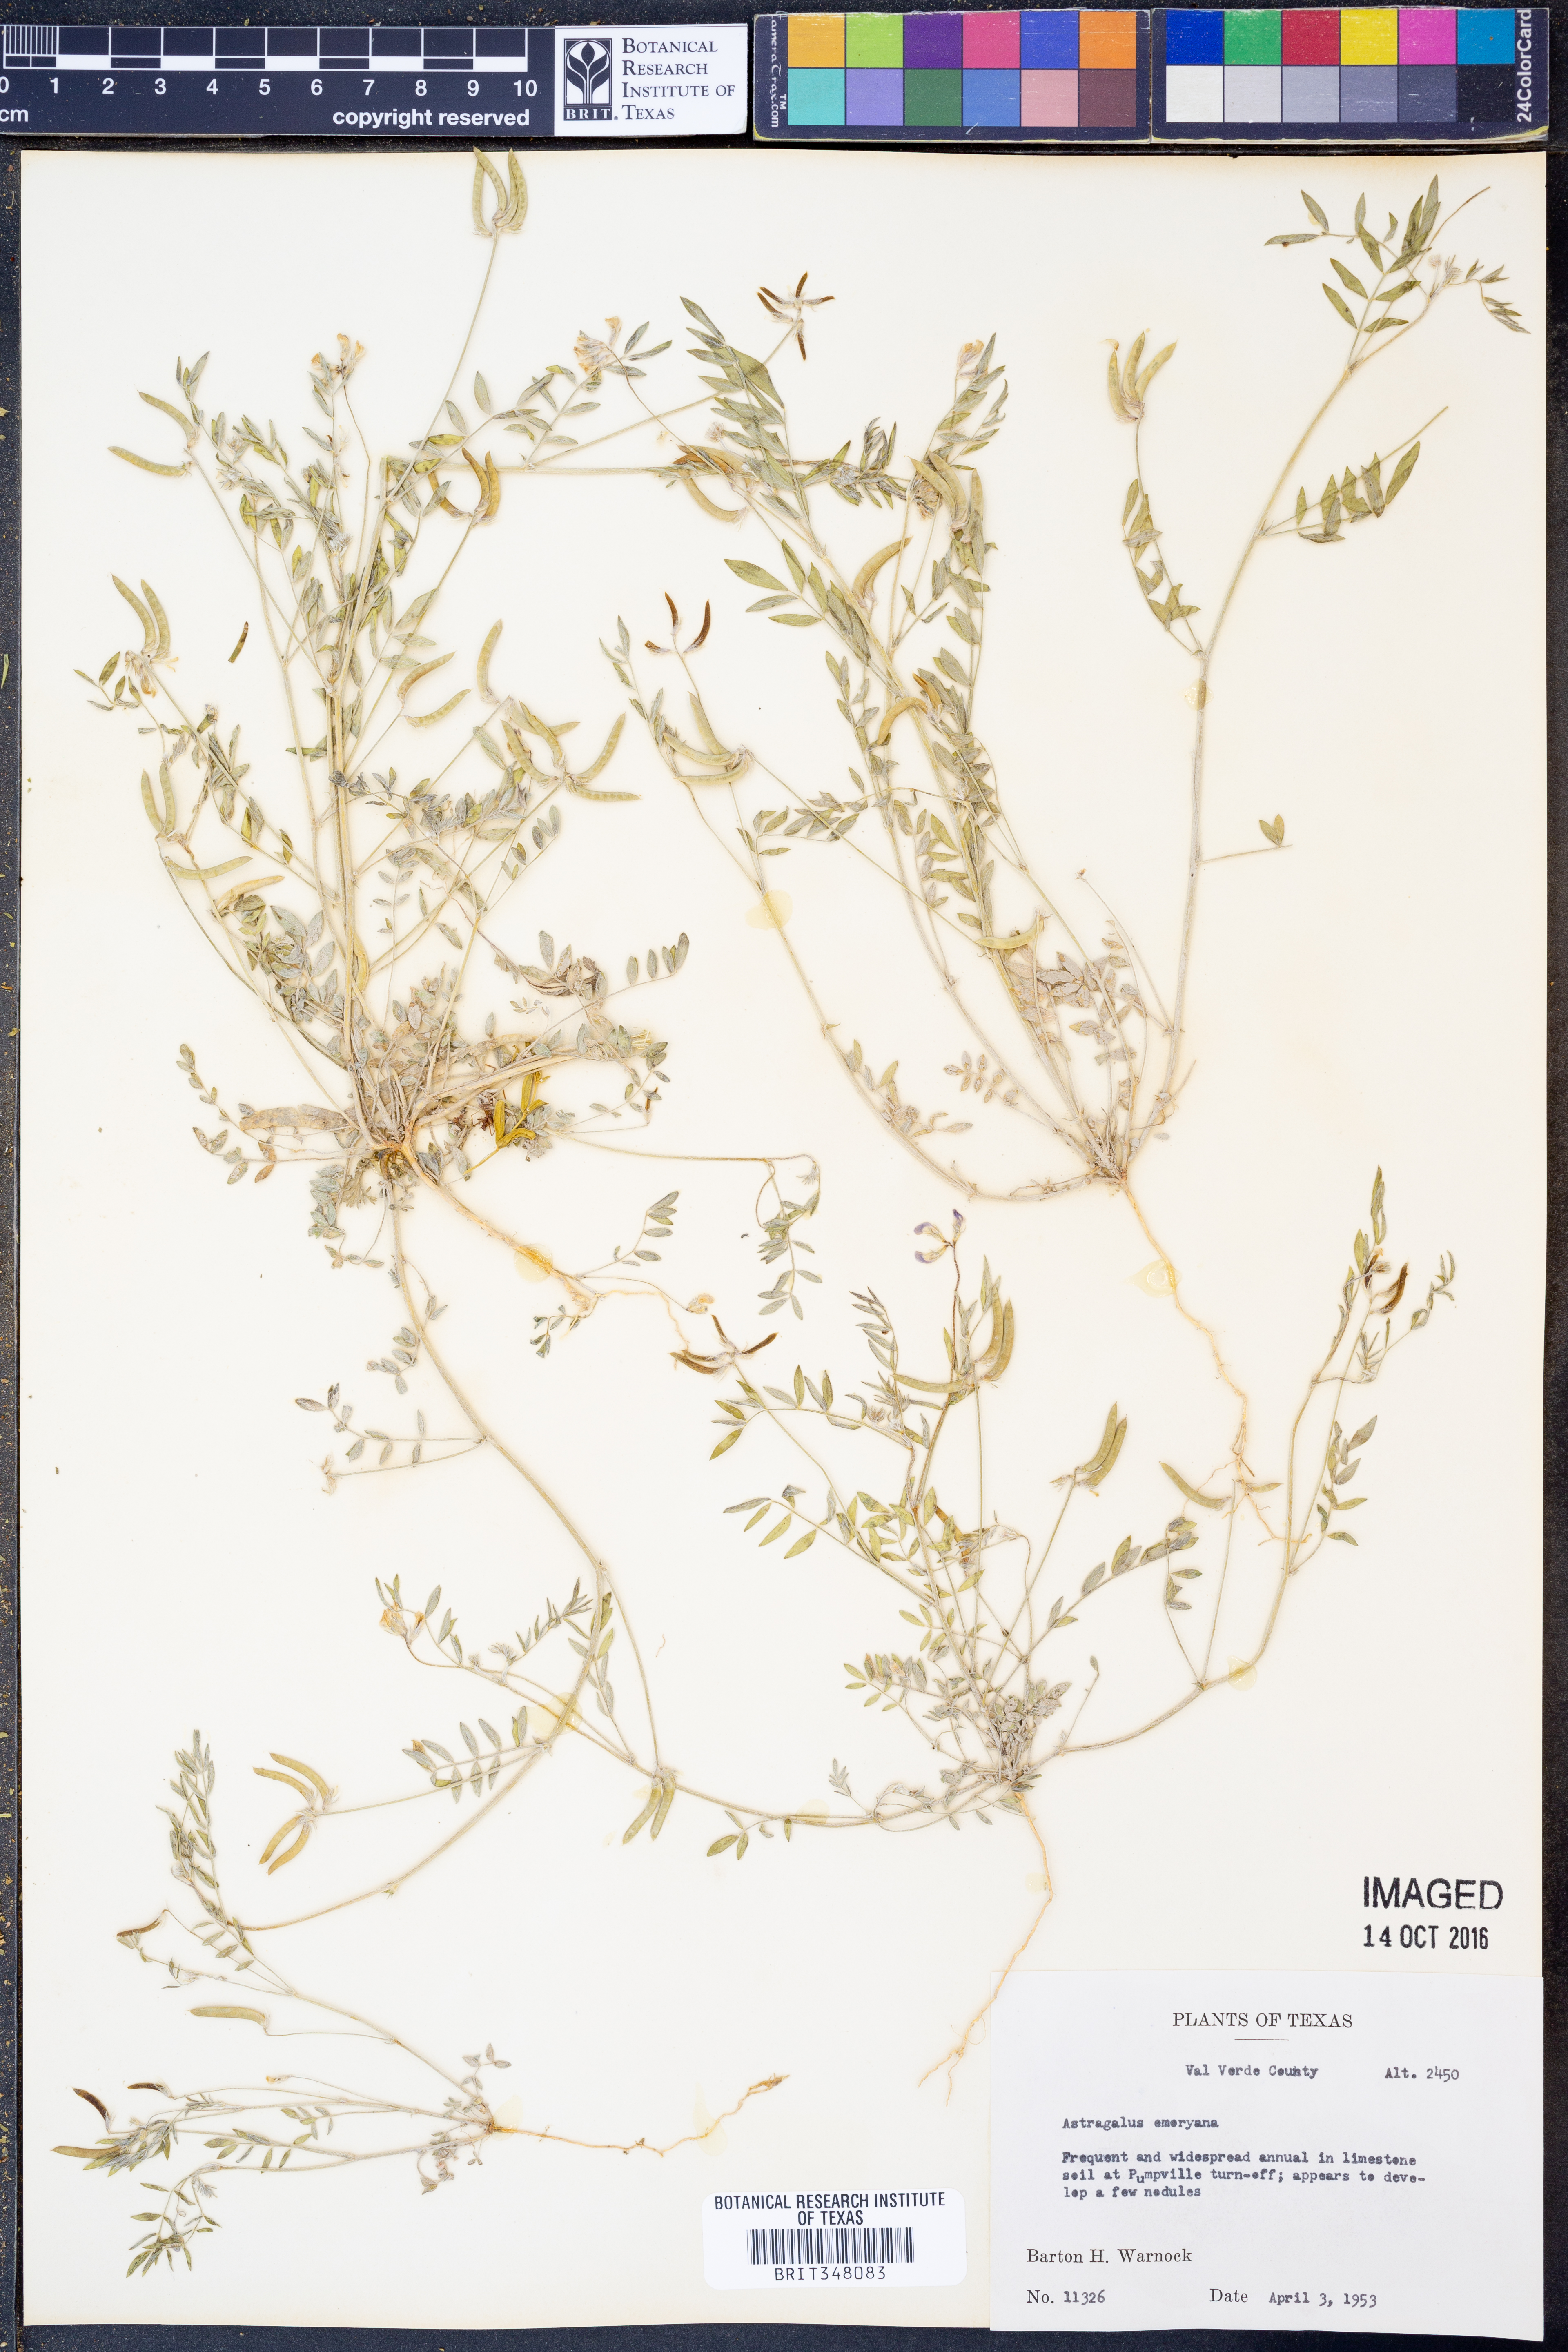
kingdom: Plantae
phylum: Tracheophyta
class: Magnoliopsida
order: Fabales
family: Fabaceae
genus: Astragalus
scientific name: Astragalus emoryanus
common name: Emory's milk-vetch
